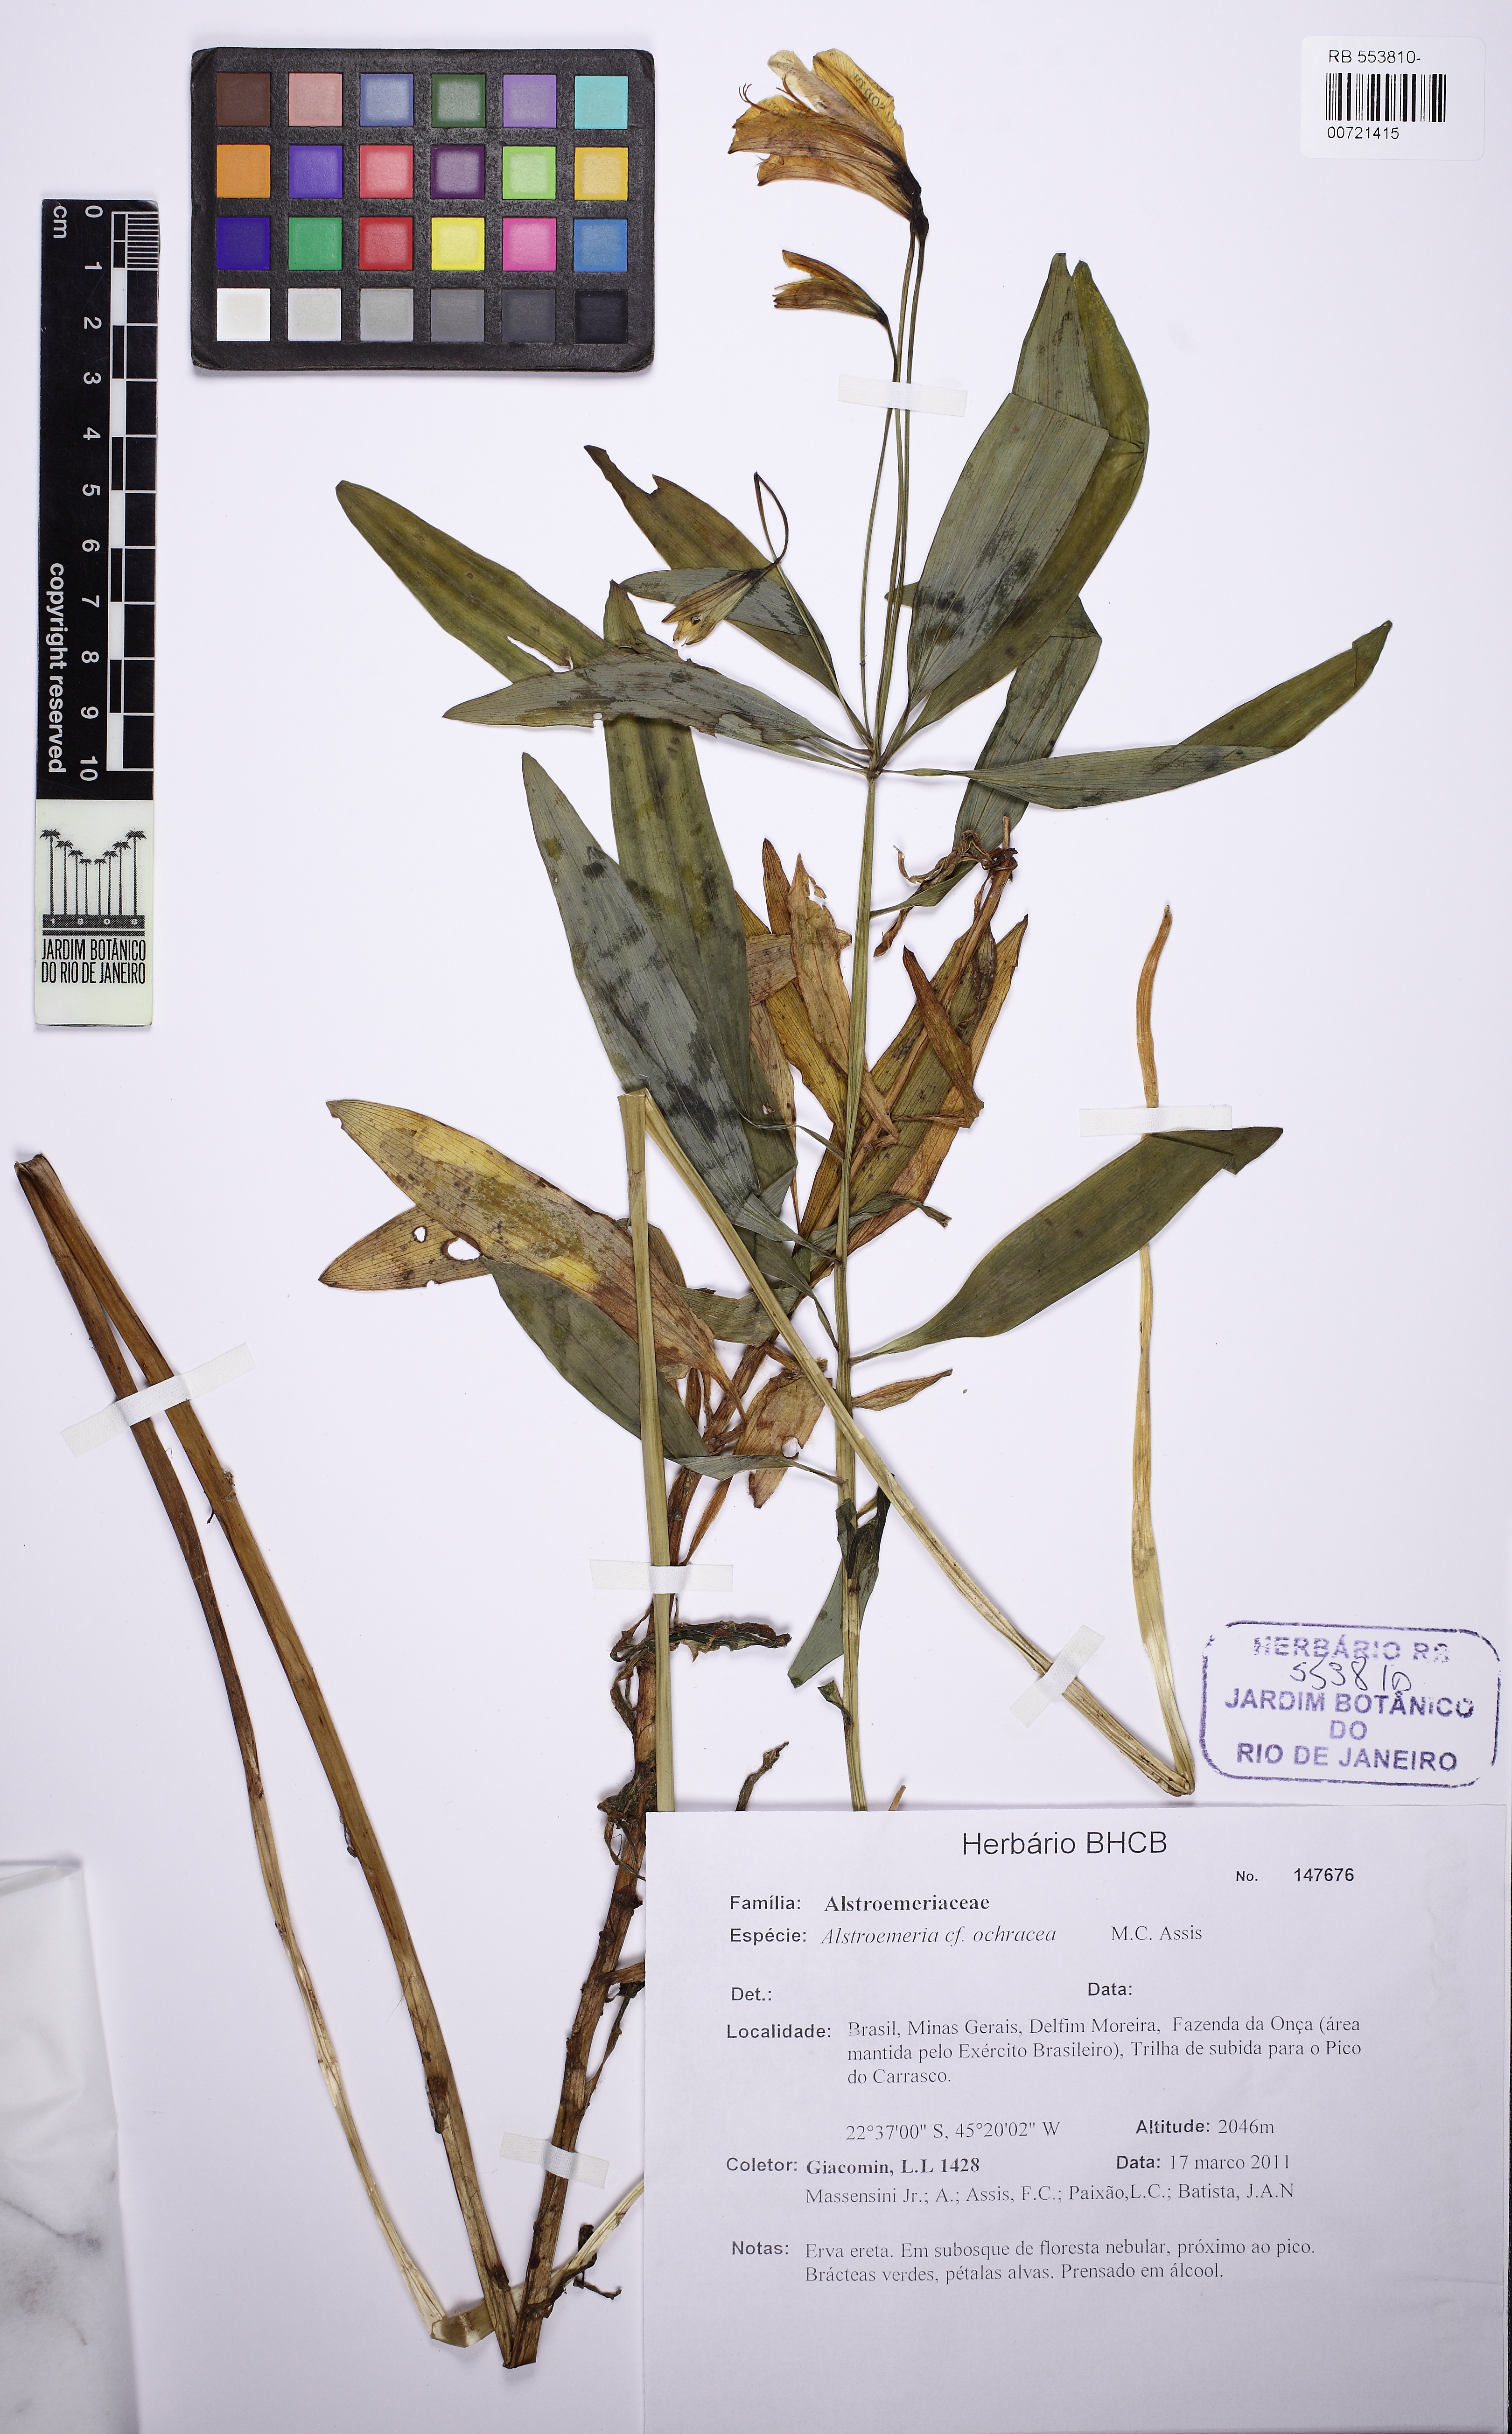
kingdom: Plantae
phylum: Tracheophyta
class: Liliopsida
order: Liliales
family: Alstroemeriaceae
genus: Alstroemeria
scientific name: Alstroemeria ochracea
